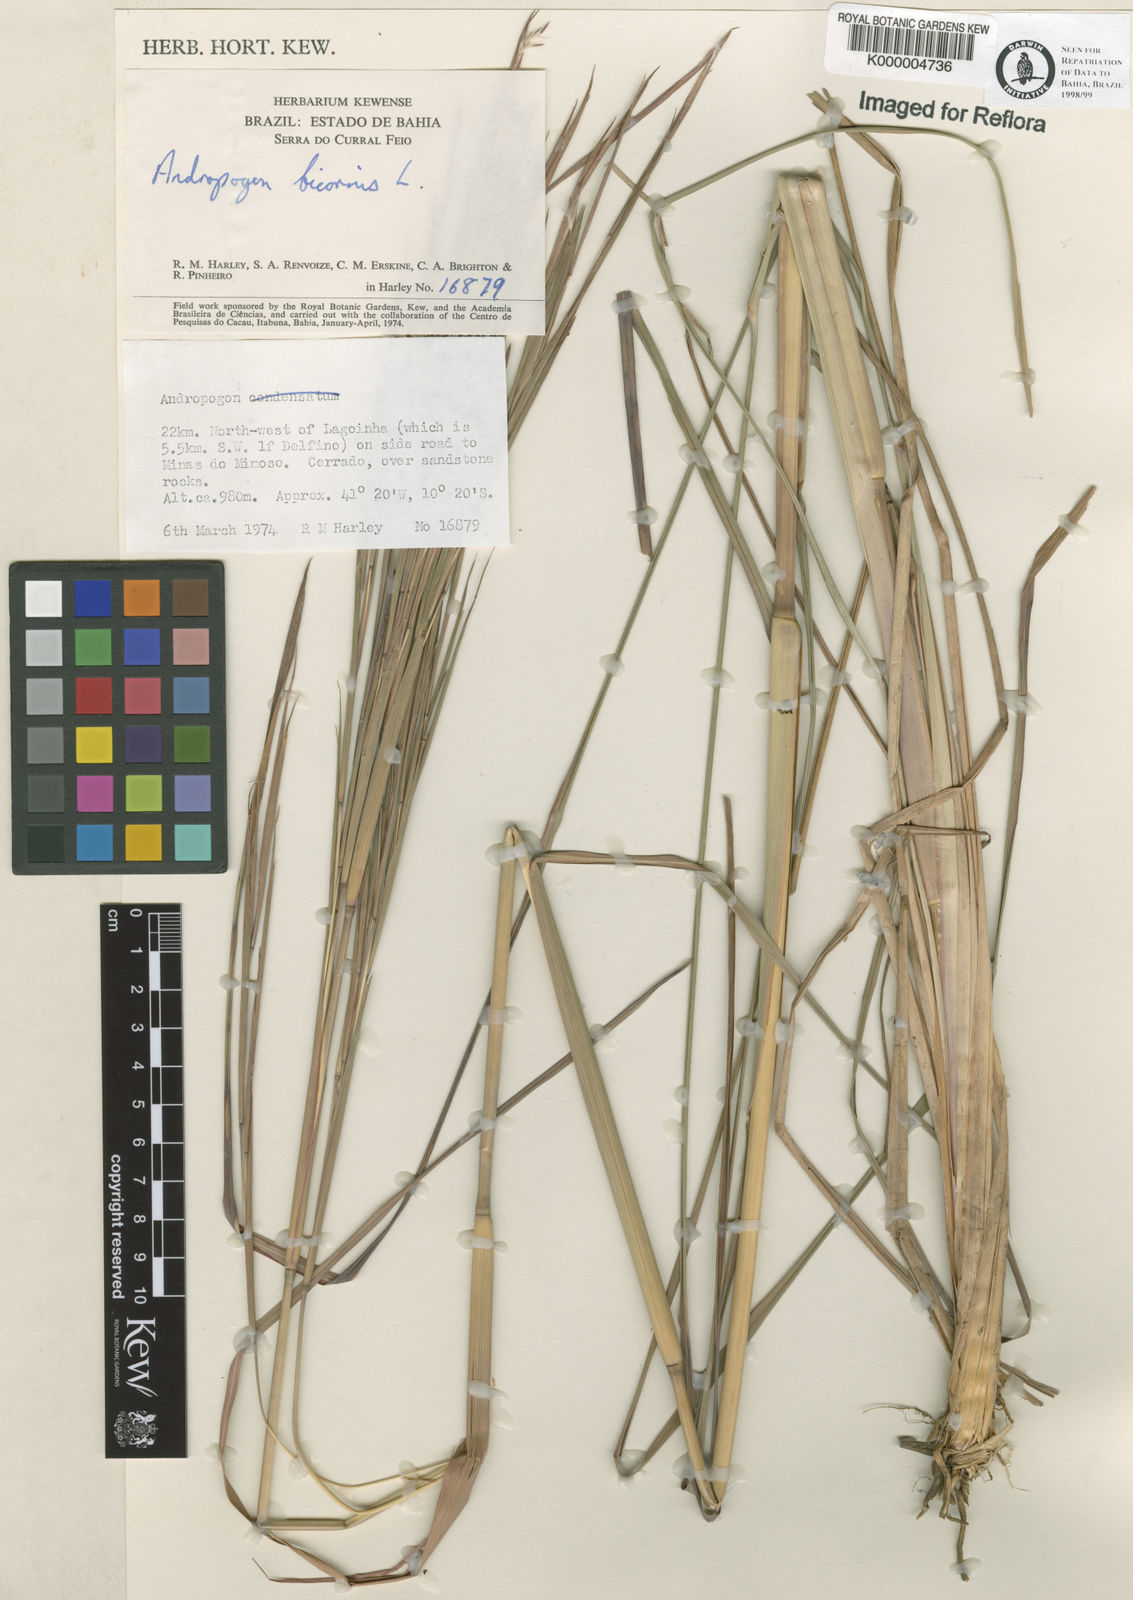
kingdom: Plantae
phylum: Tracheophyta
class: Liliopsida
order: Poales
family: Poaceae
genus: Andropogon
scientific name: Andropogon bicornis
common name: West indian foxtail grass
